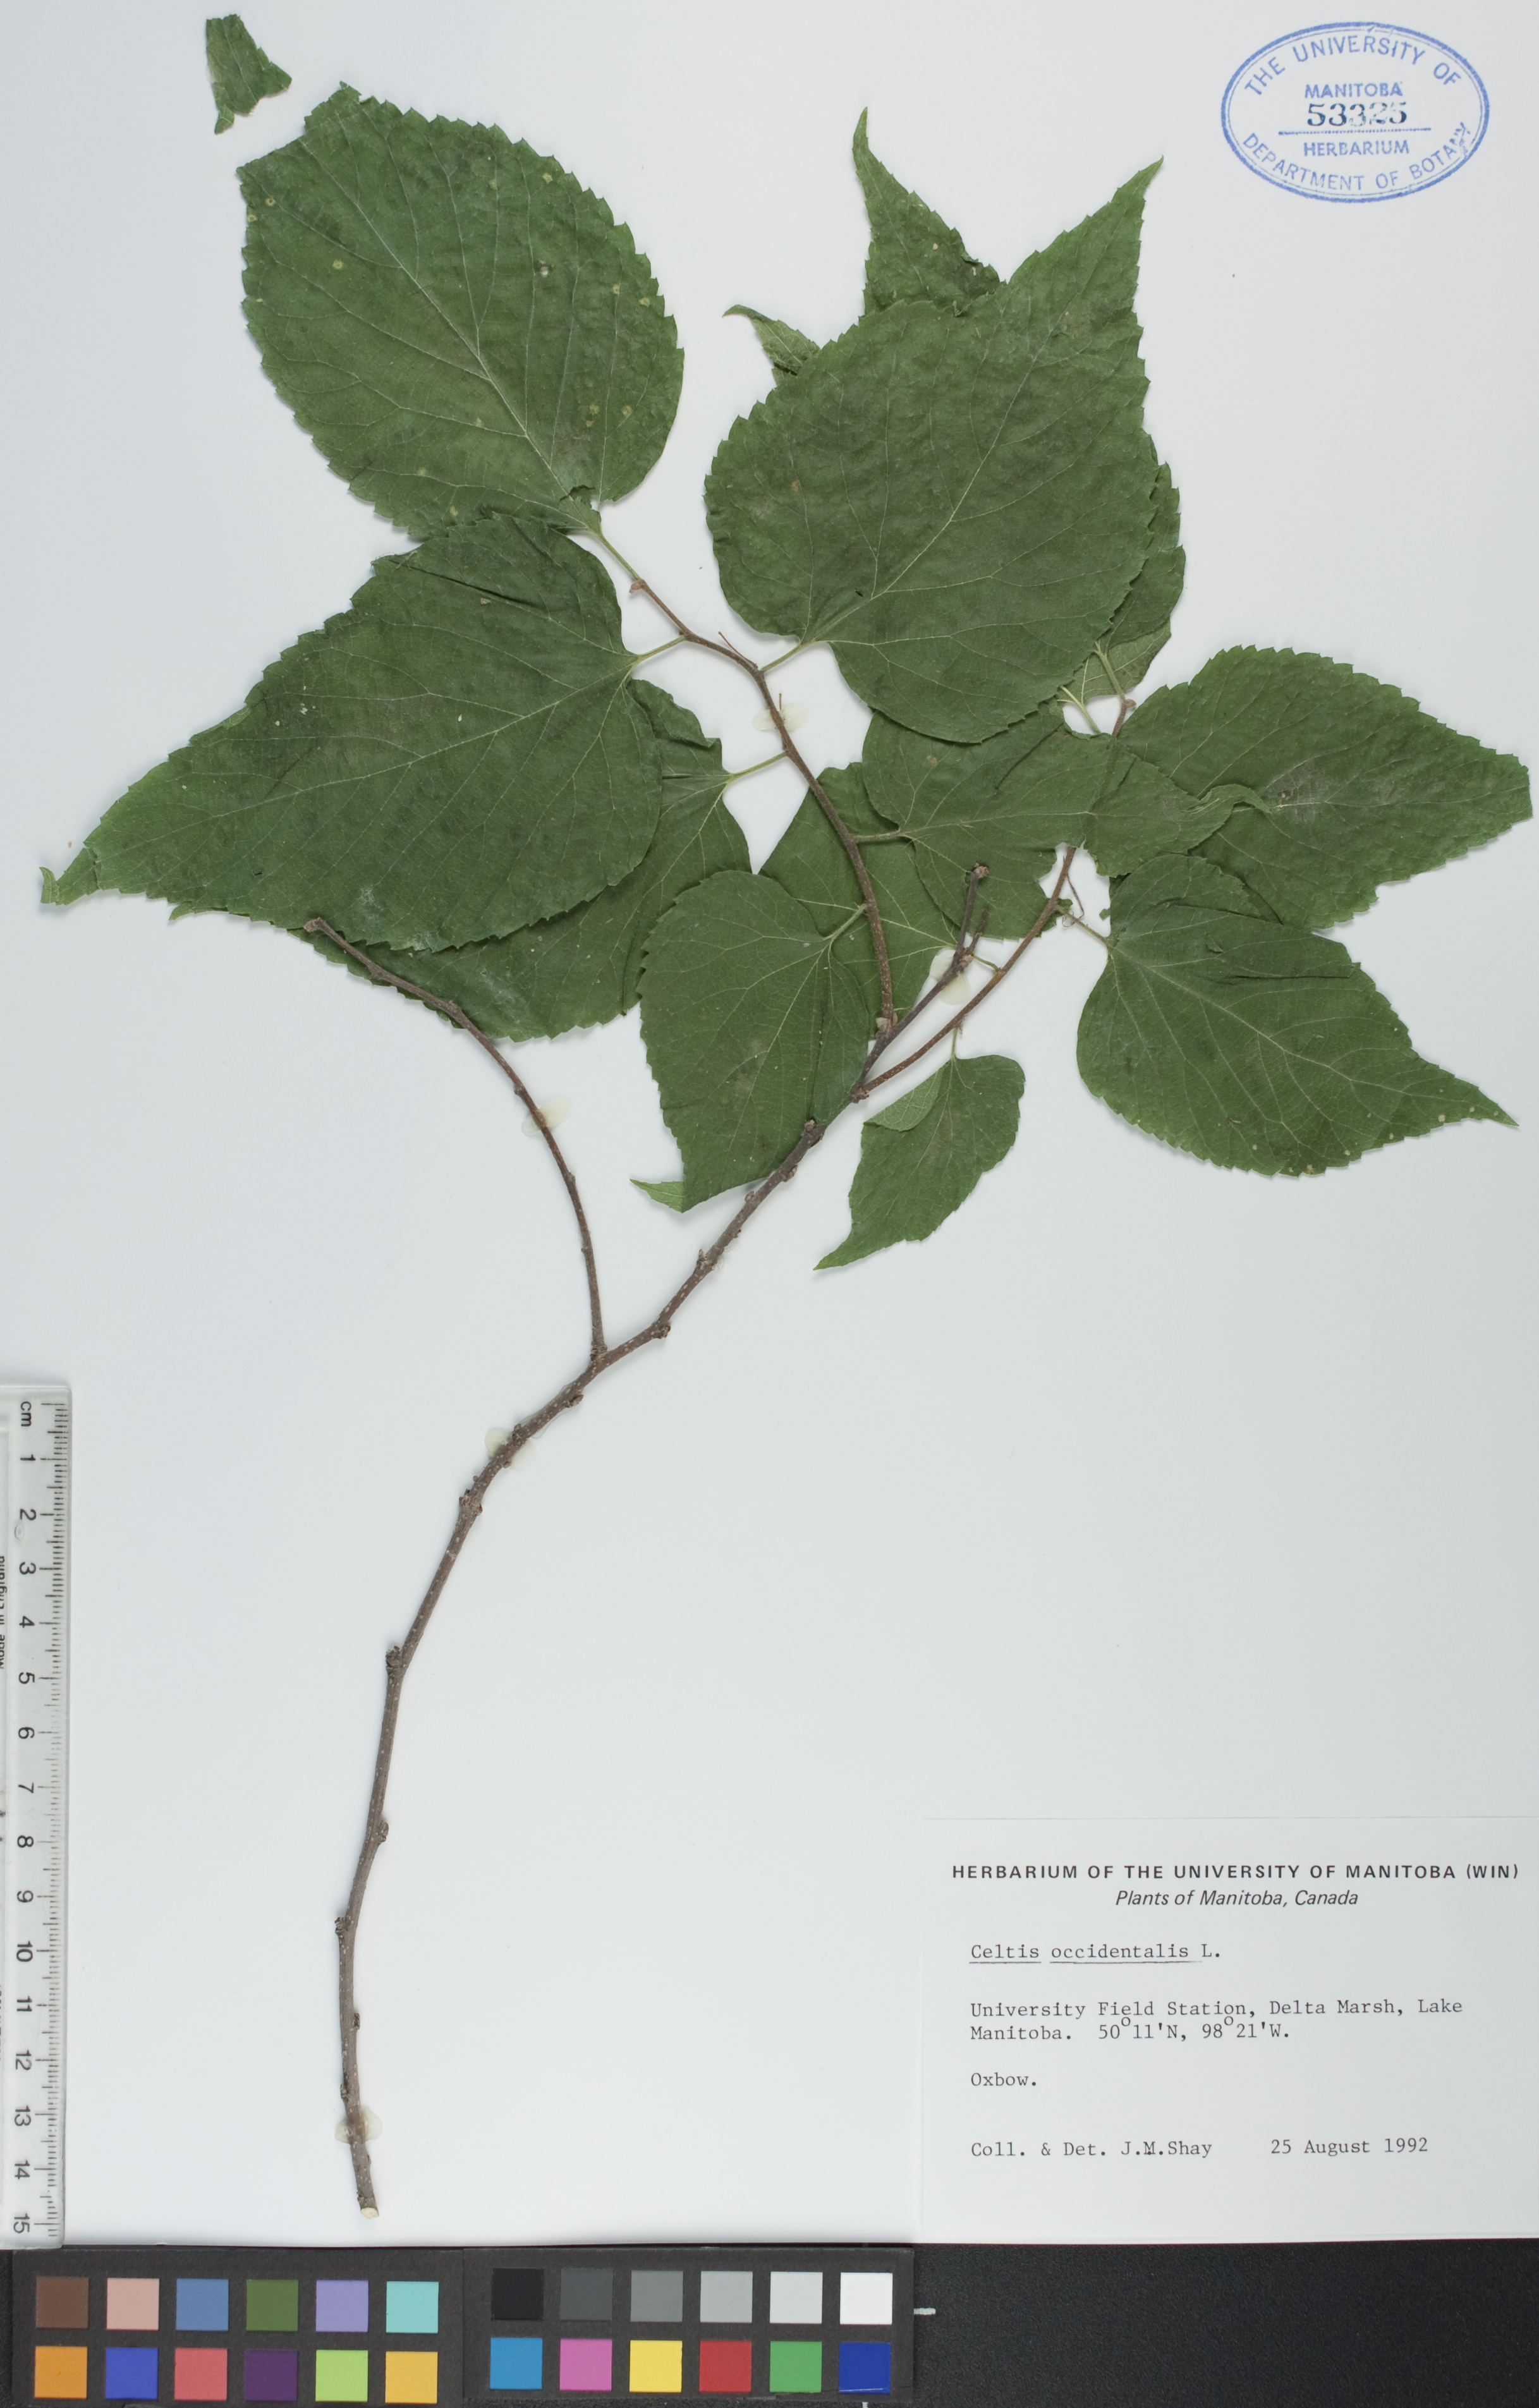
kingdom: Plantae
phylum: Tracheophyta
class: Magnoliopsida
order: Rosales
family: Cannabaceae
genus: Celtis
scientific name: Celtis occidentalis
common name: Common hackberry
